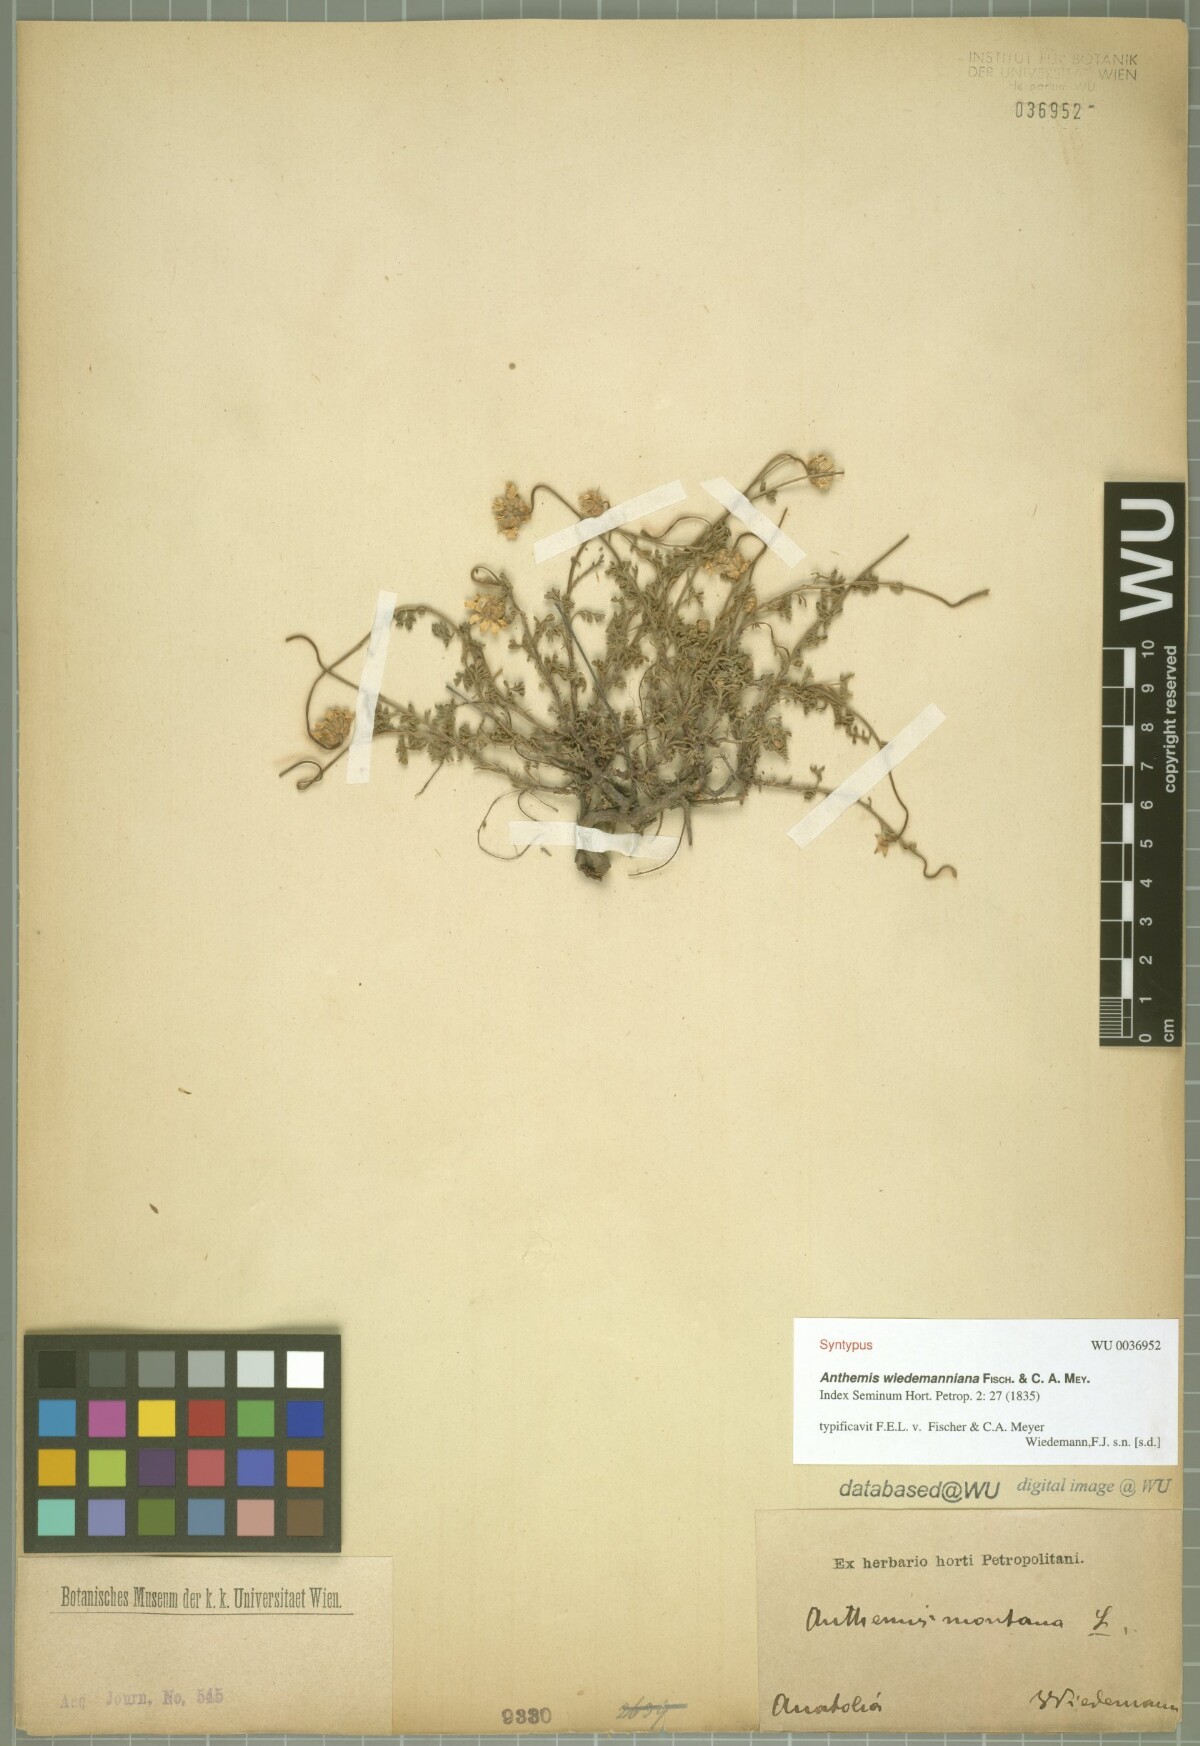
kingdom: Plantae
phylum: Tracheophyta
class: Magnoliopsida
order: Asterales
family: Asteraceae
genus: Cota
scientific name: Cota wiedemanniana
